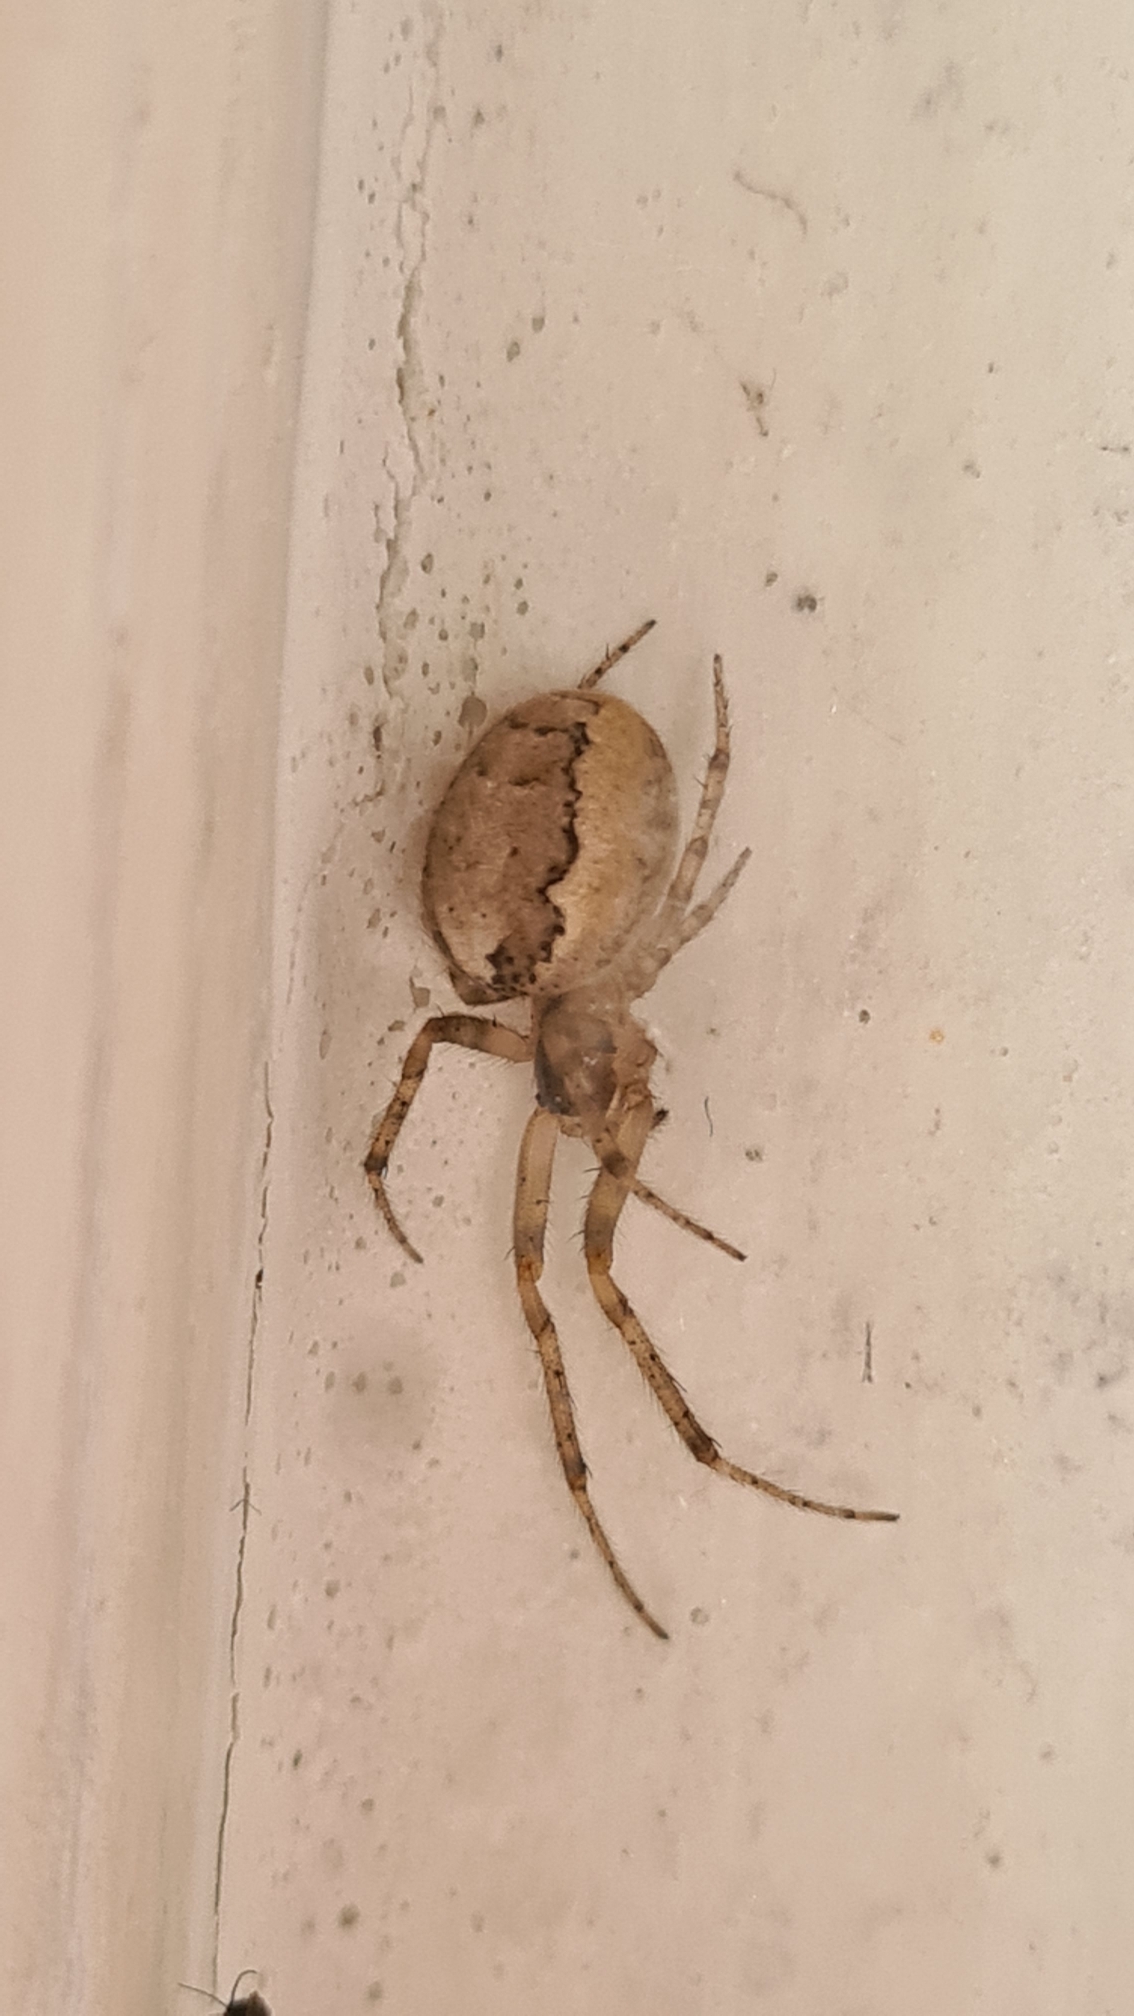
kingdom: Animalia
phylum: Arthropoda
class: Arachnida
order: Araneae
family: Araneidae
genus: Zygiella
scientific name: Zygiella x-notata
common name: Grå sektoredderkop
